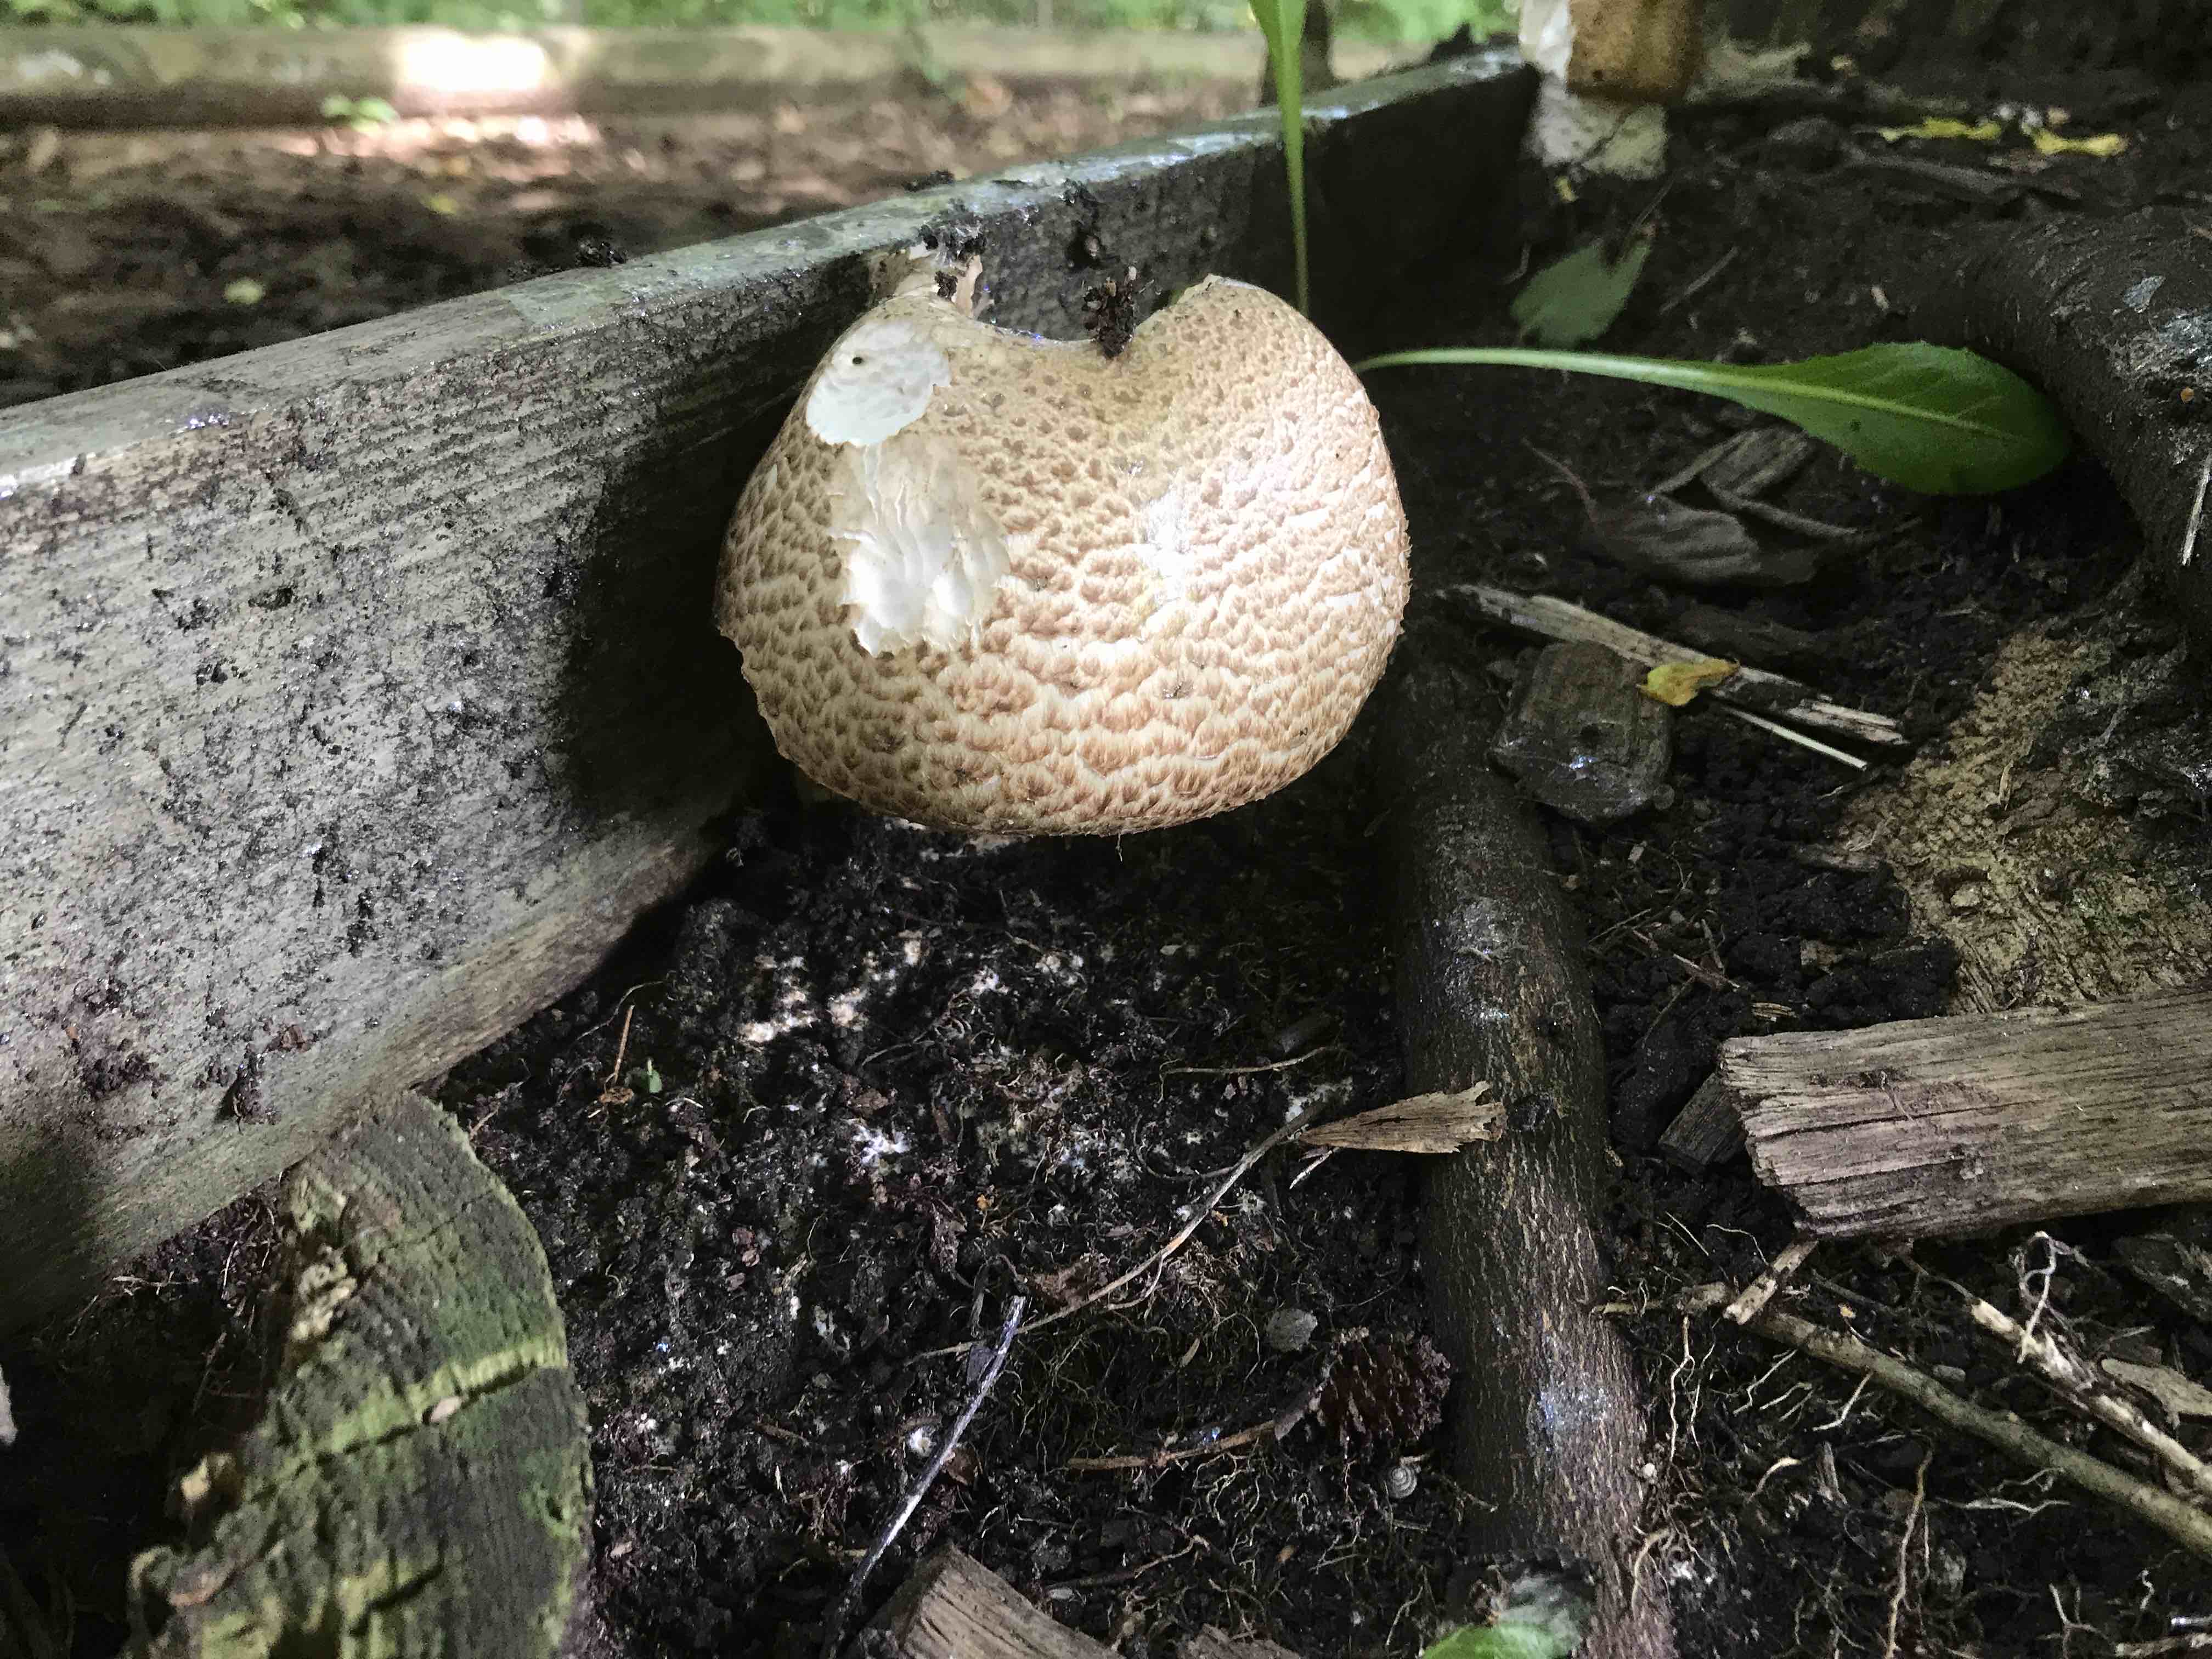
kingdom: Fungi
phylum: Basidiomycota
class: Agaricomycetes
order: Agaricales
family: Agaricaceae
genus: Agaricus
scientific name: Agaricus augustus
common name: prægtig champignon
